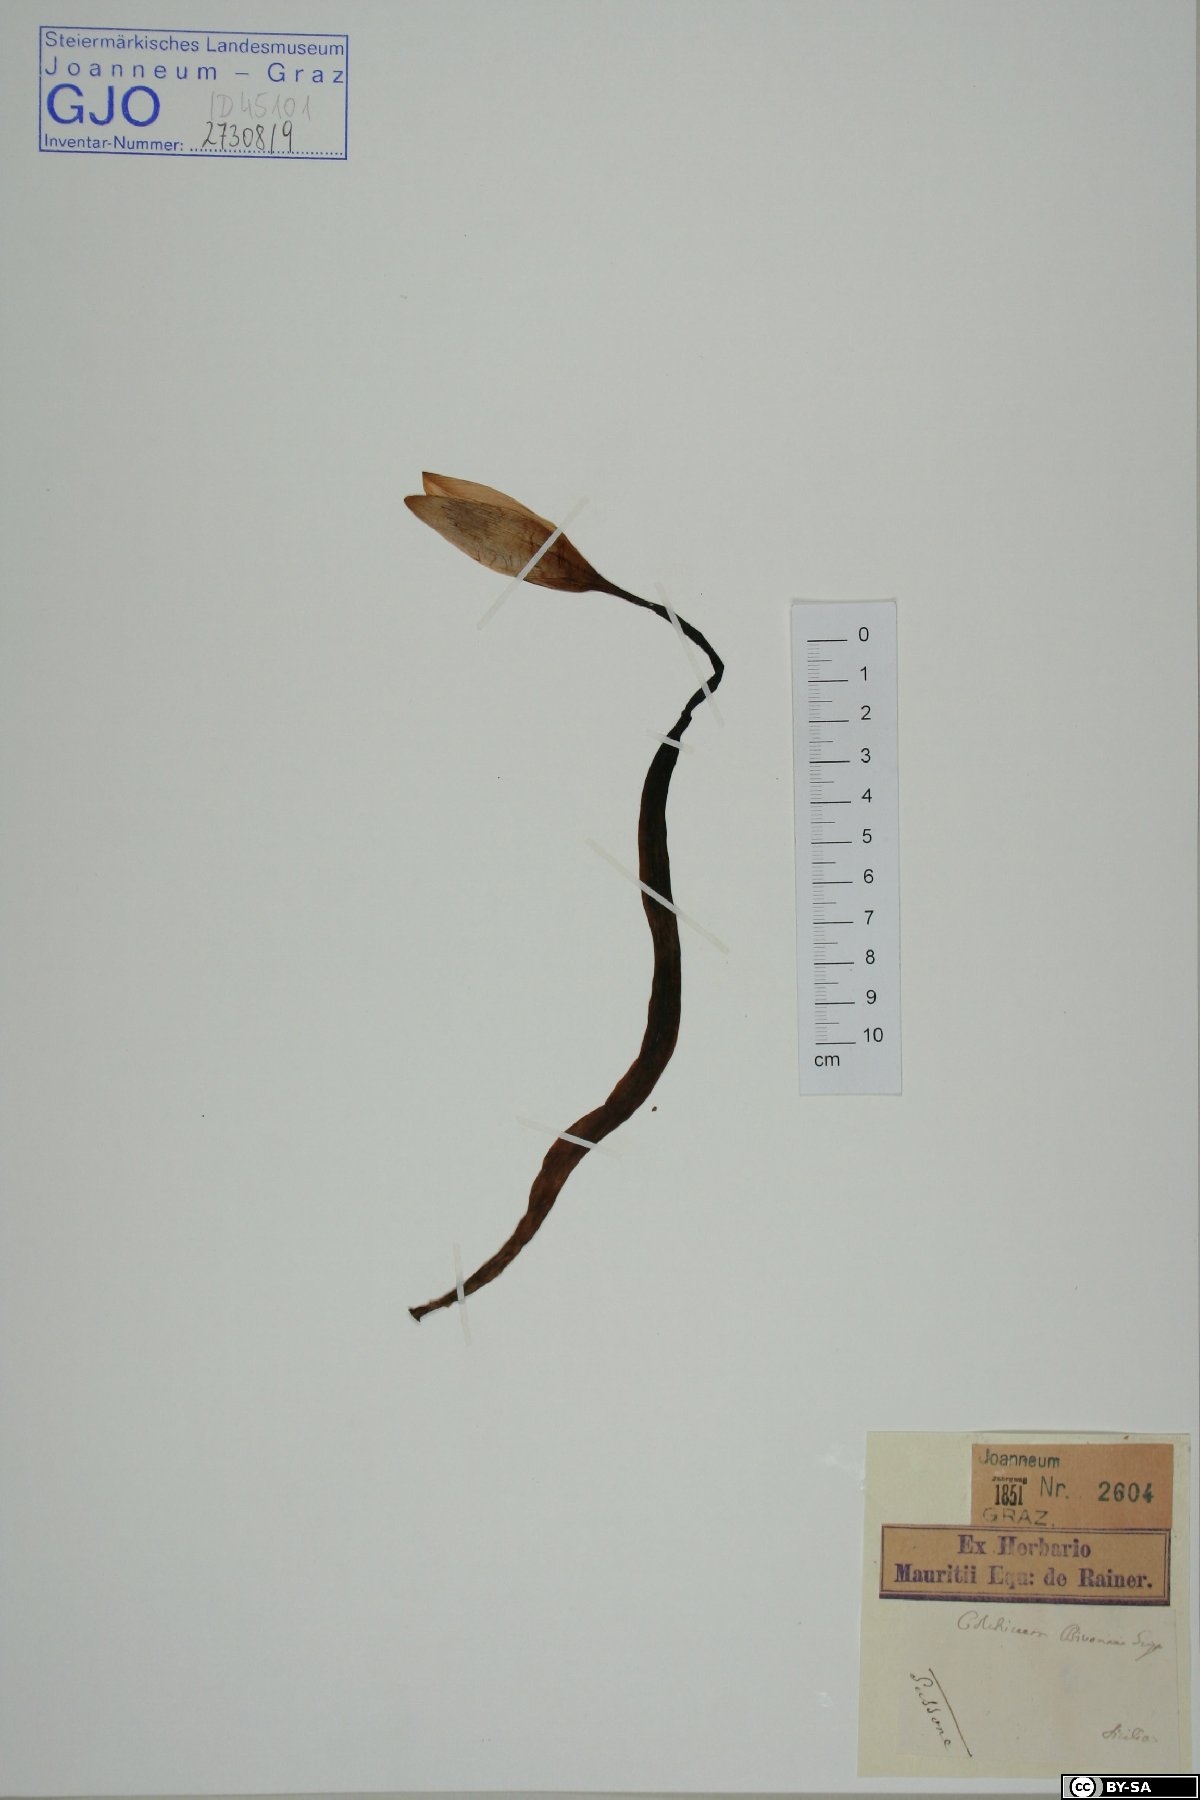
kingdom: Plantae
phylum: Tracheophyta
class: Liliopsida
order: Liliales
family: Colchicaceae
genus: Colchicum
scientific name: Colchicum bivonae
